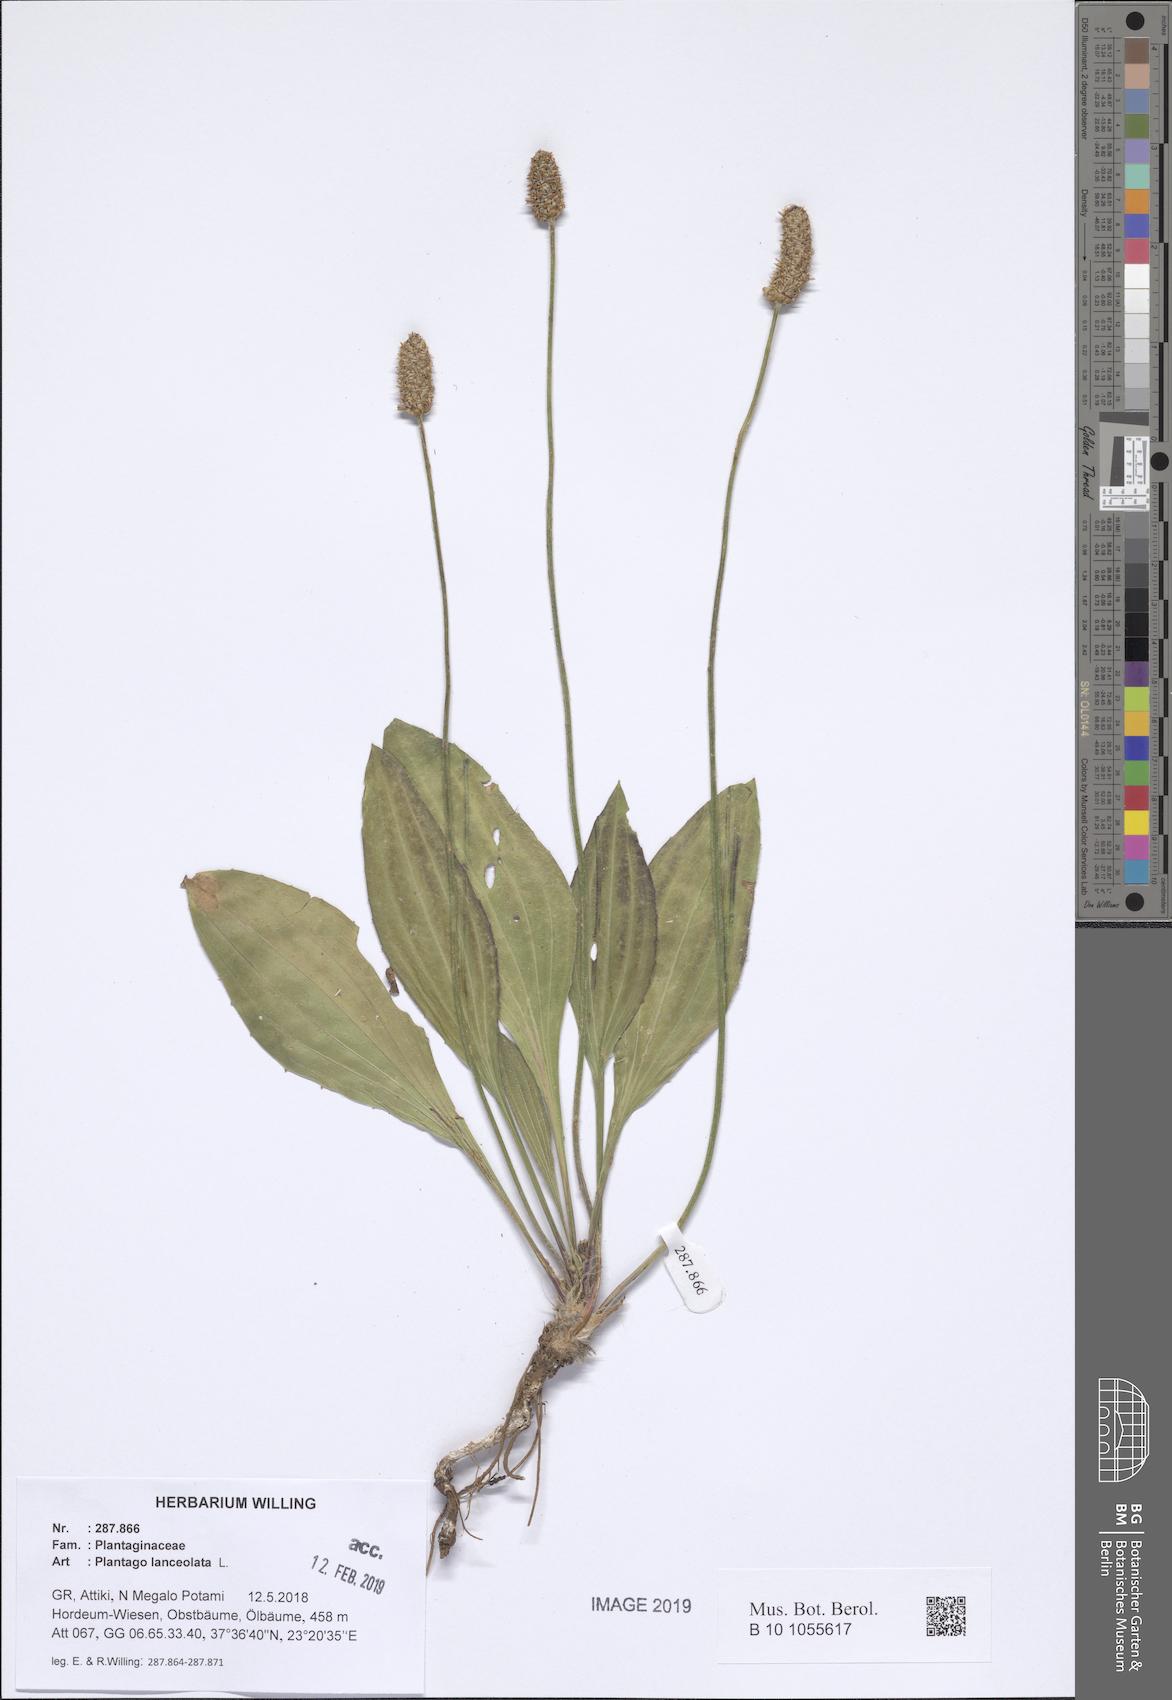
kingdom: Plantae
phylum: Tracheophyta
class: Magnoliopsida
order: Lamiales
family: Plantaginaceae
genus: Plantago
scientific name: Plantago lanceolata
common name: Ribwort plantain
